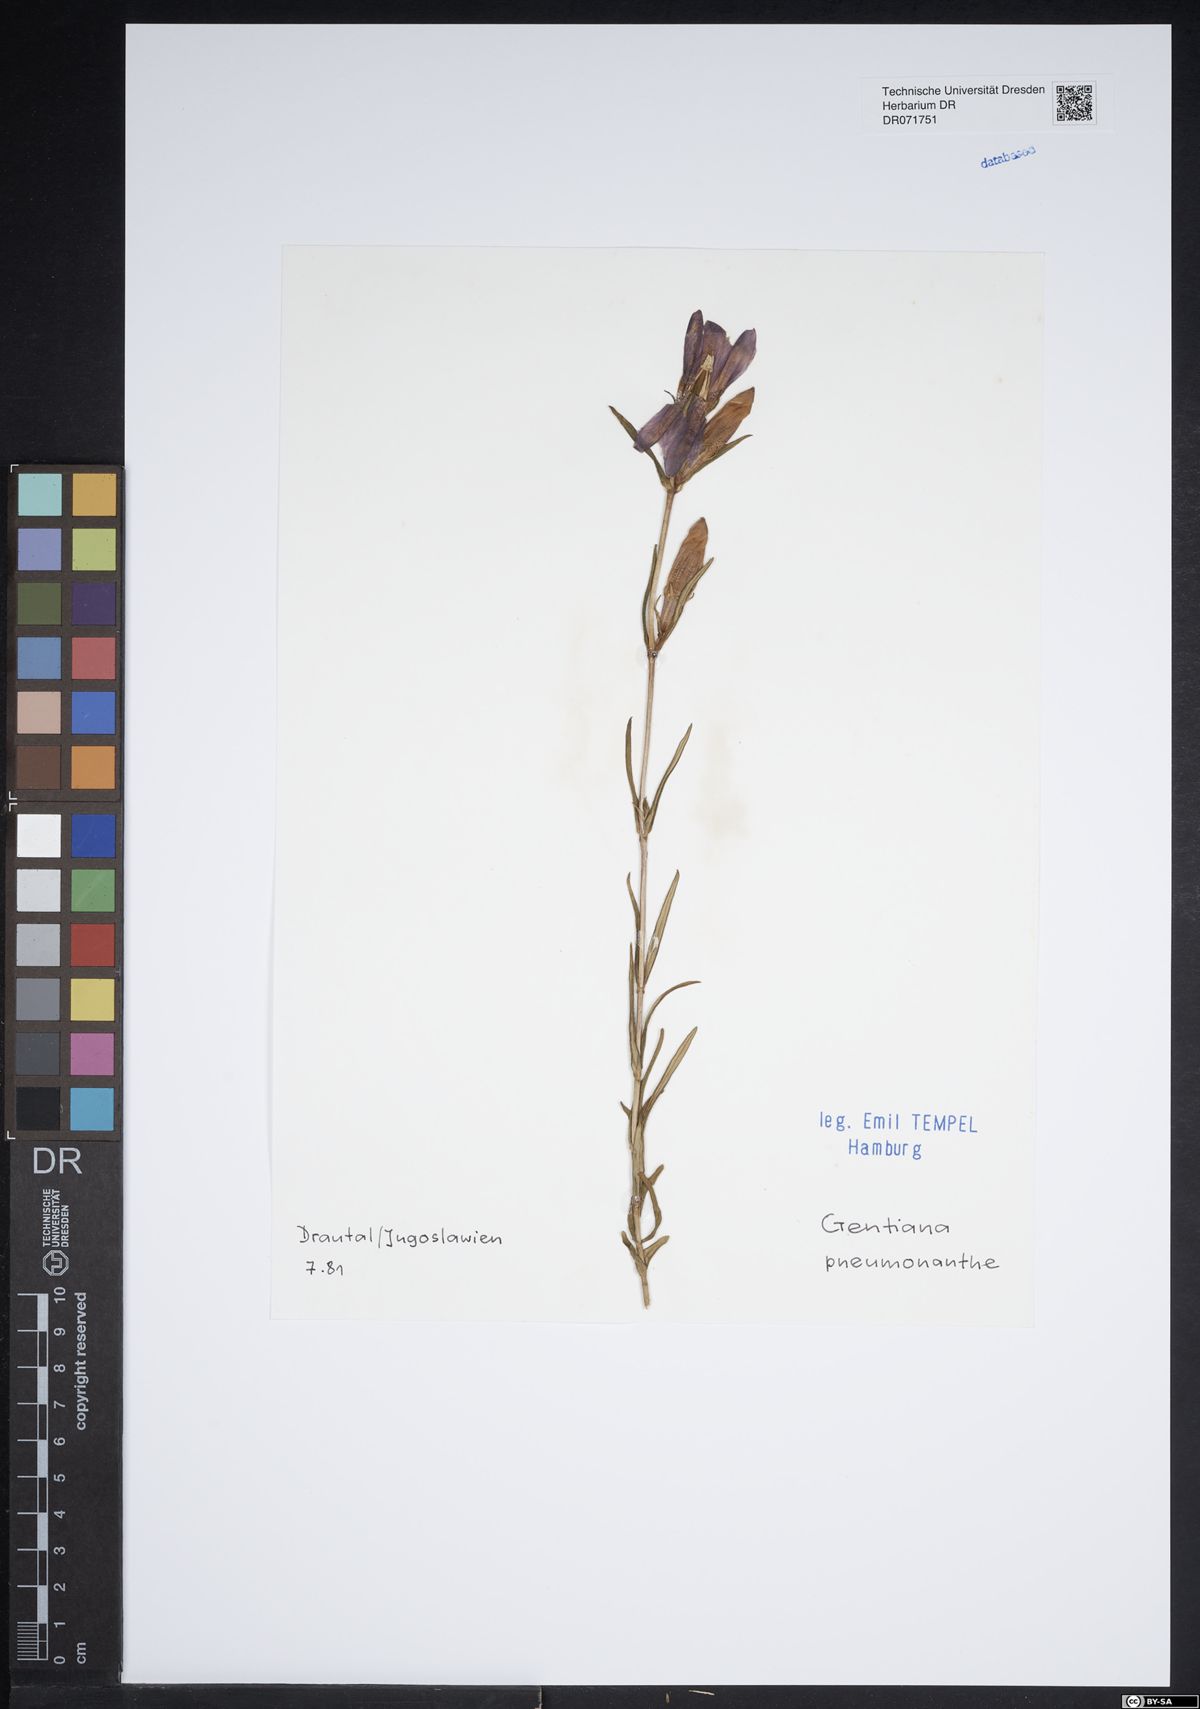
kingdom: Plantae
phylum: Tracheophyta
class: Magnoliopsida
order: Gentianales
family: Gentianaceae
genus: Gentiana
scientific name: Gentiana pneumonanthe
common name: Marsh gentian
